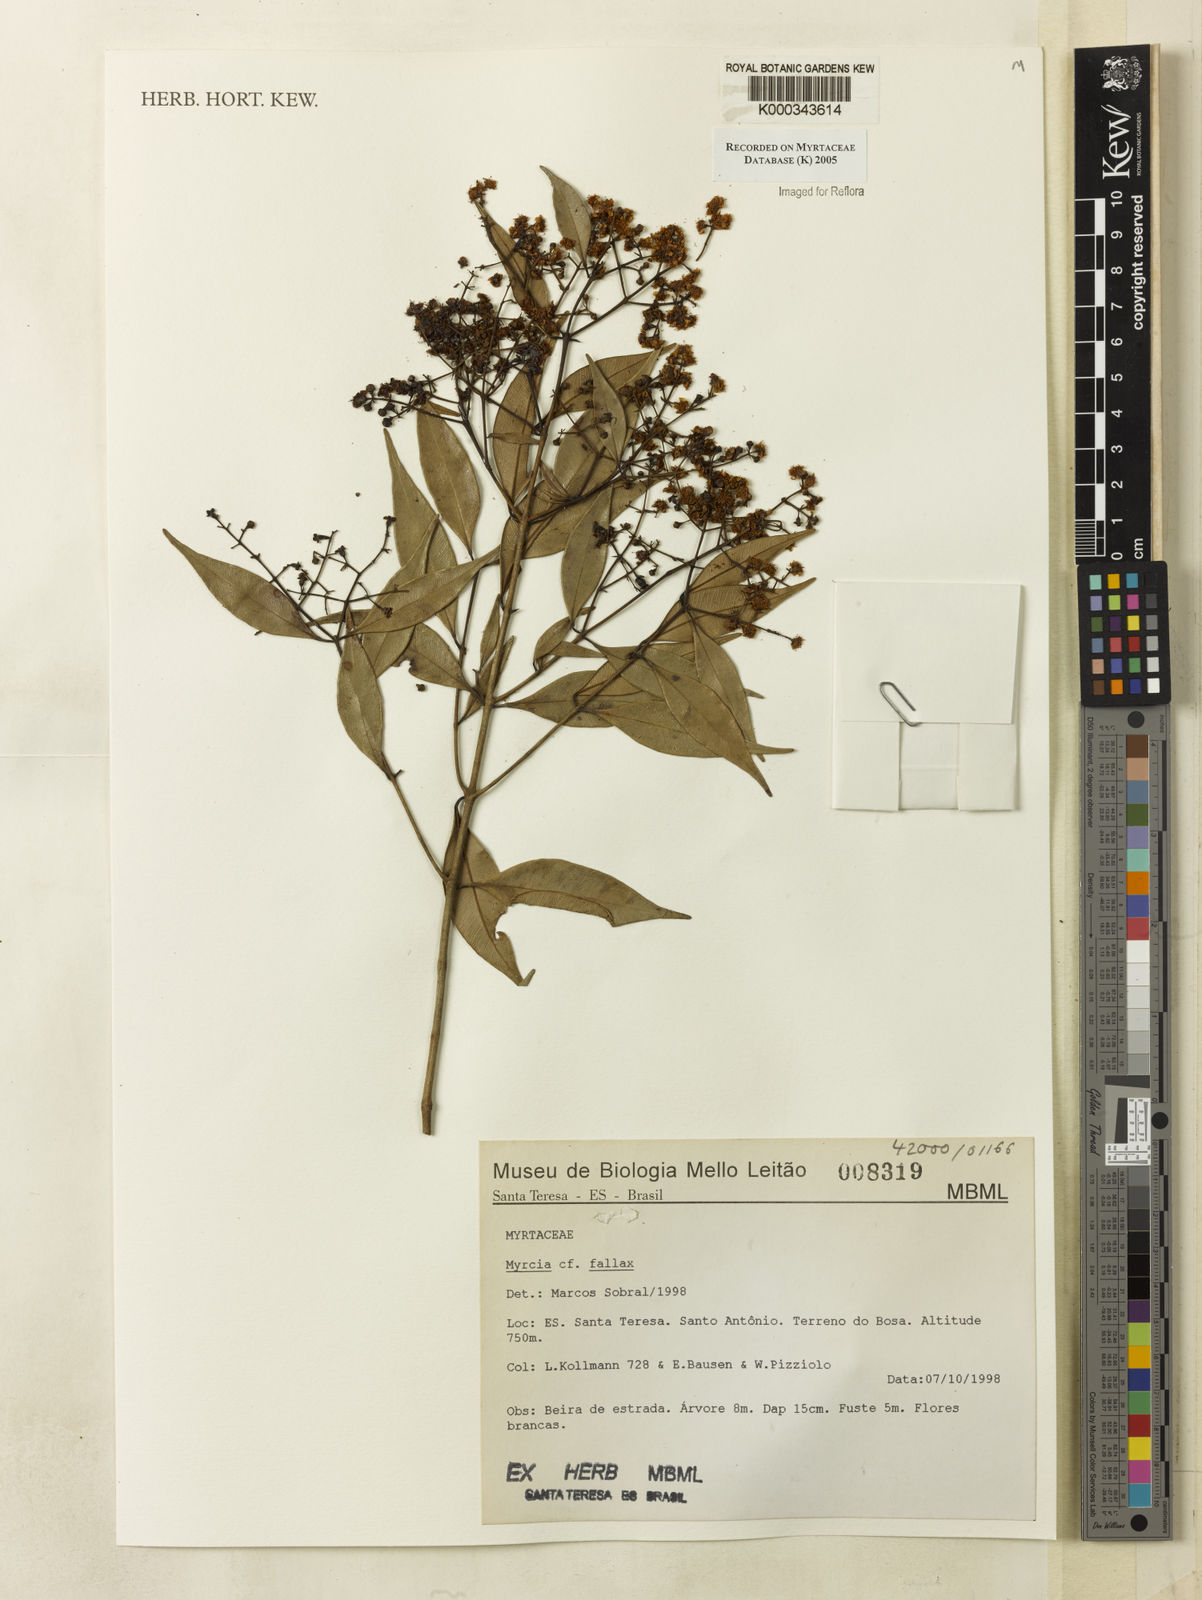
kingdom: Plantae
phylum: Tracheophyta
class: Magnoliopsida
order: Myrtales
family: Myrtaceae
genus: Myrcia
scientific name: Myrcia splendens
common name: Surinam cherry
